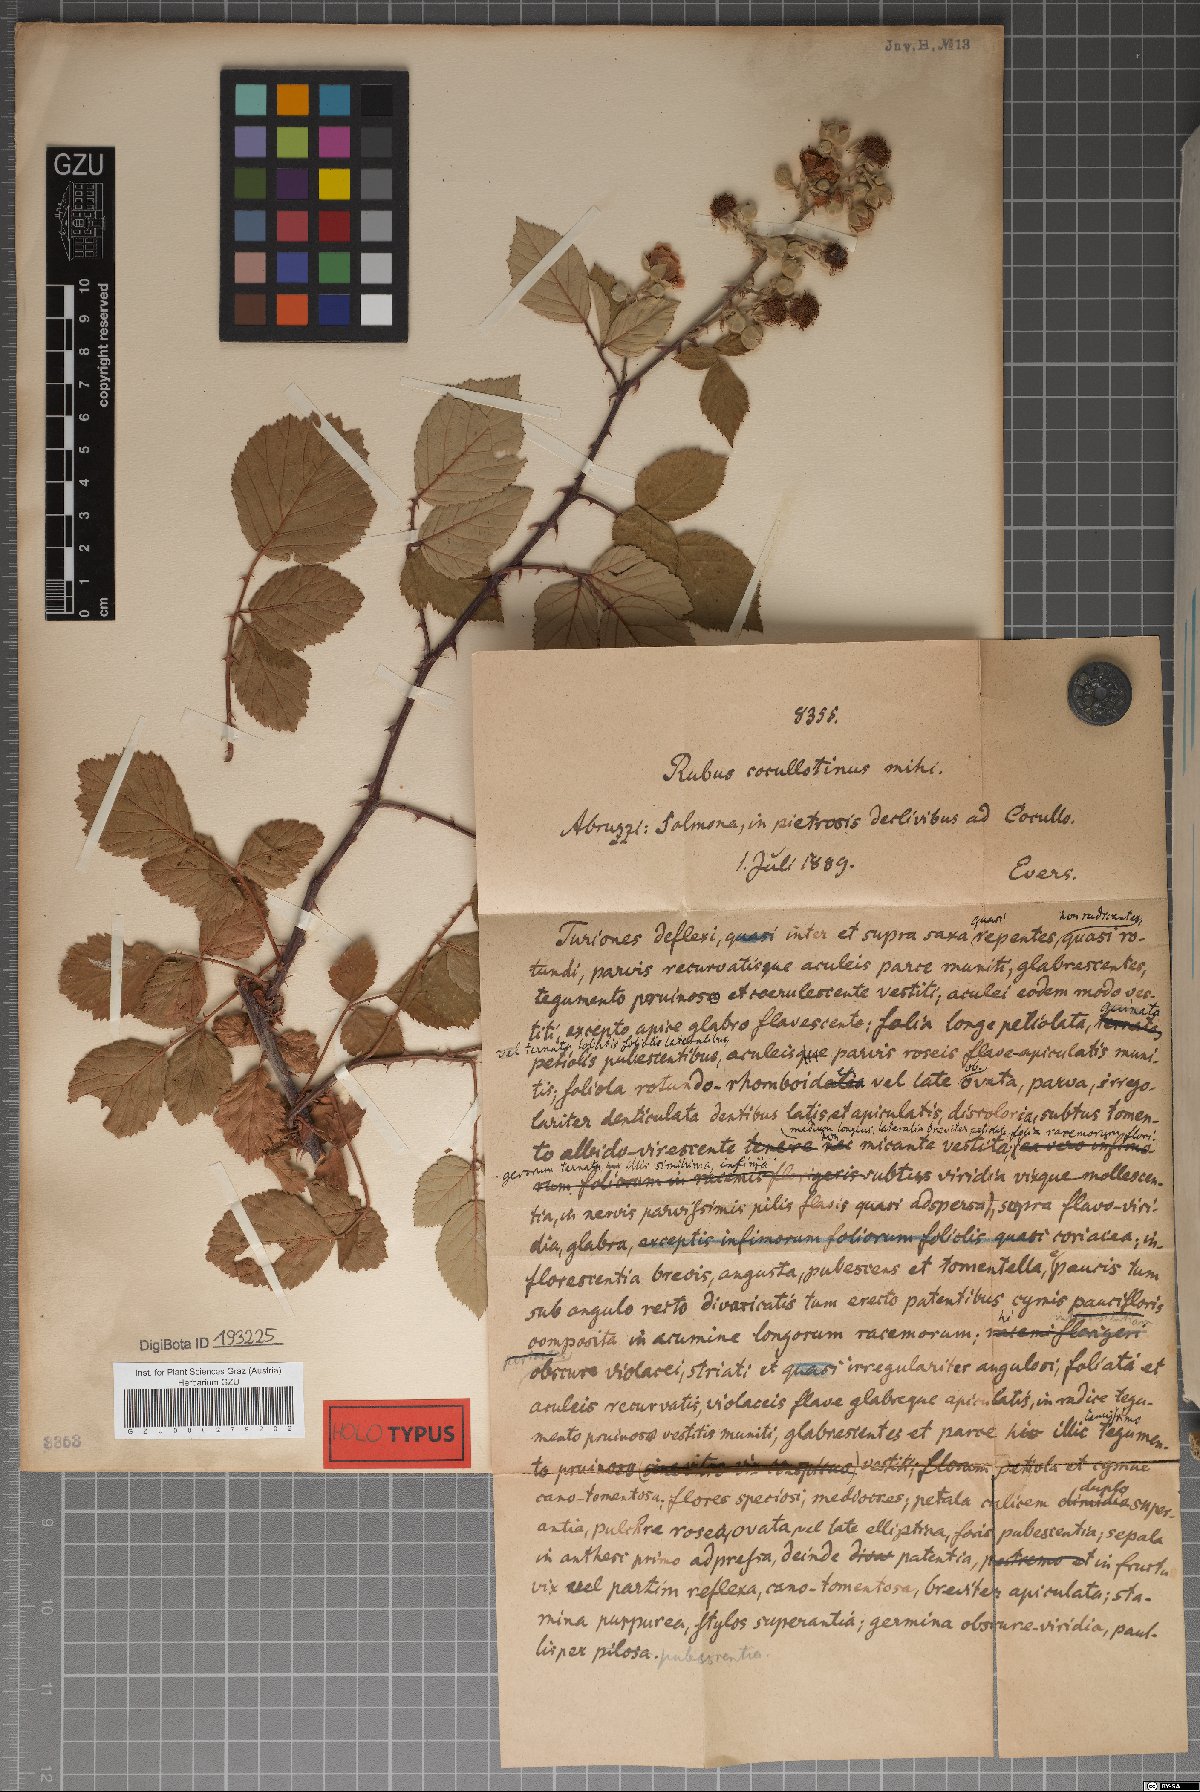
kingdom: Plantae
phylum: Tracheophyta
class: Magnoliopsida
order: Rosales
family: Rosaceae
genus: Rubus
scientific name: Rubus ulmifolius
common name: Elmleaf blackberry
